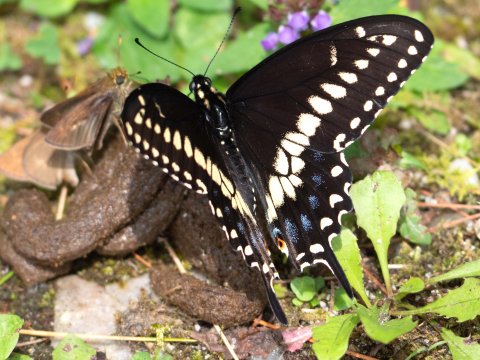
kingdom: Animalia
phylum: Arthropoda
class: Insecta
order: Lepidoptera
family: Papilionidae
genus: Papilio
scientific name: Papilio polyxenes
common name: Black Swallowtail
